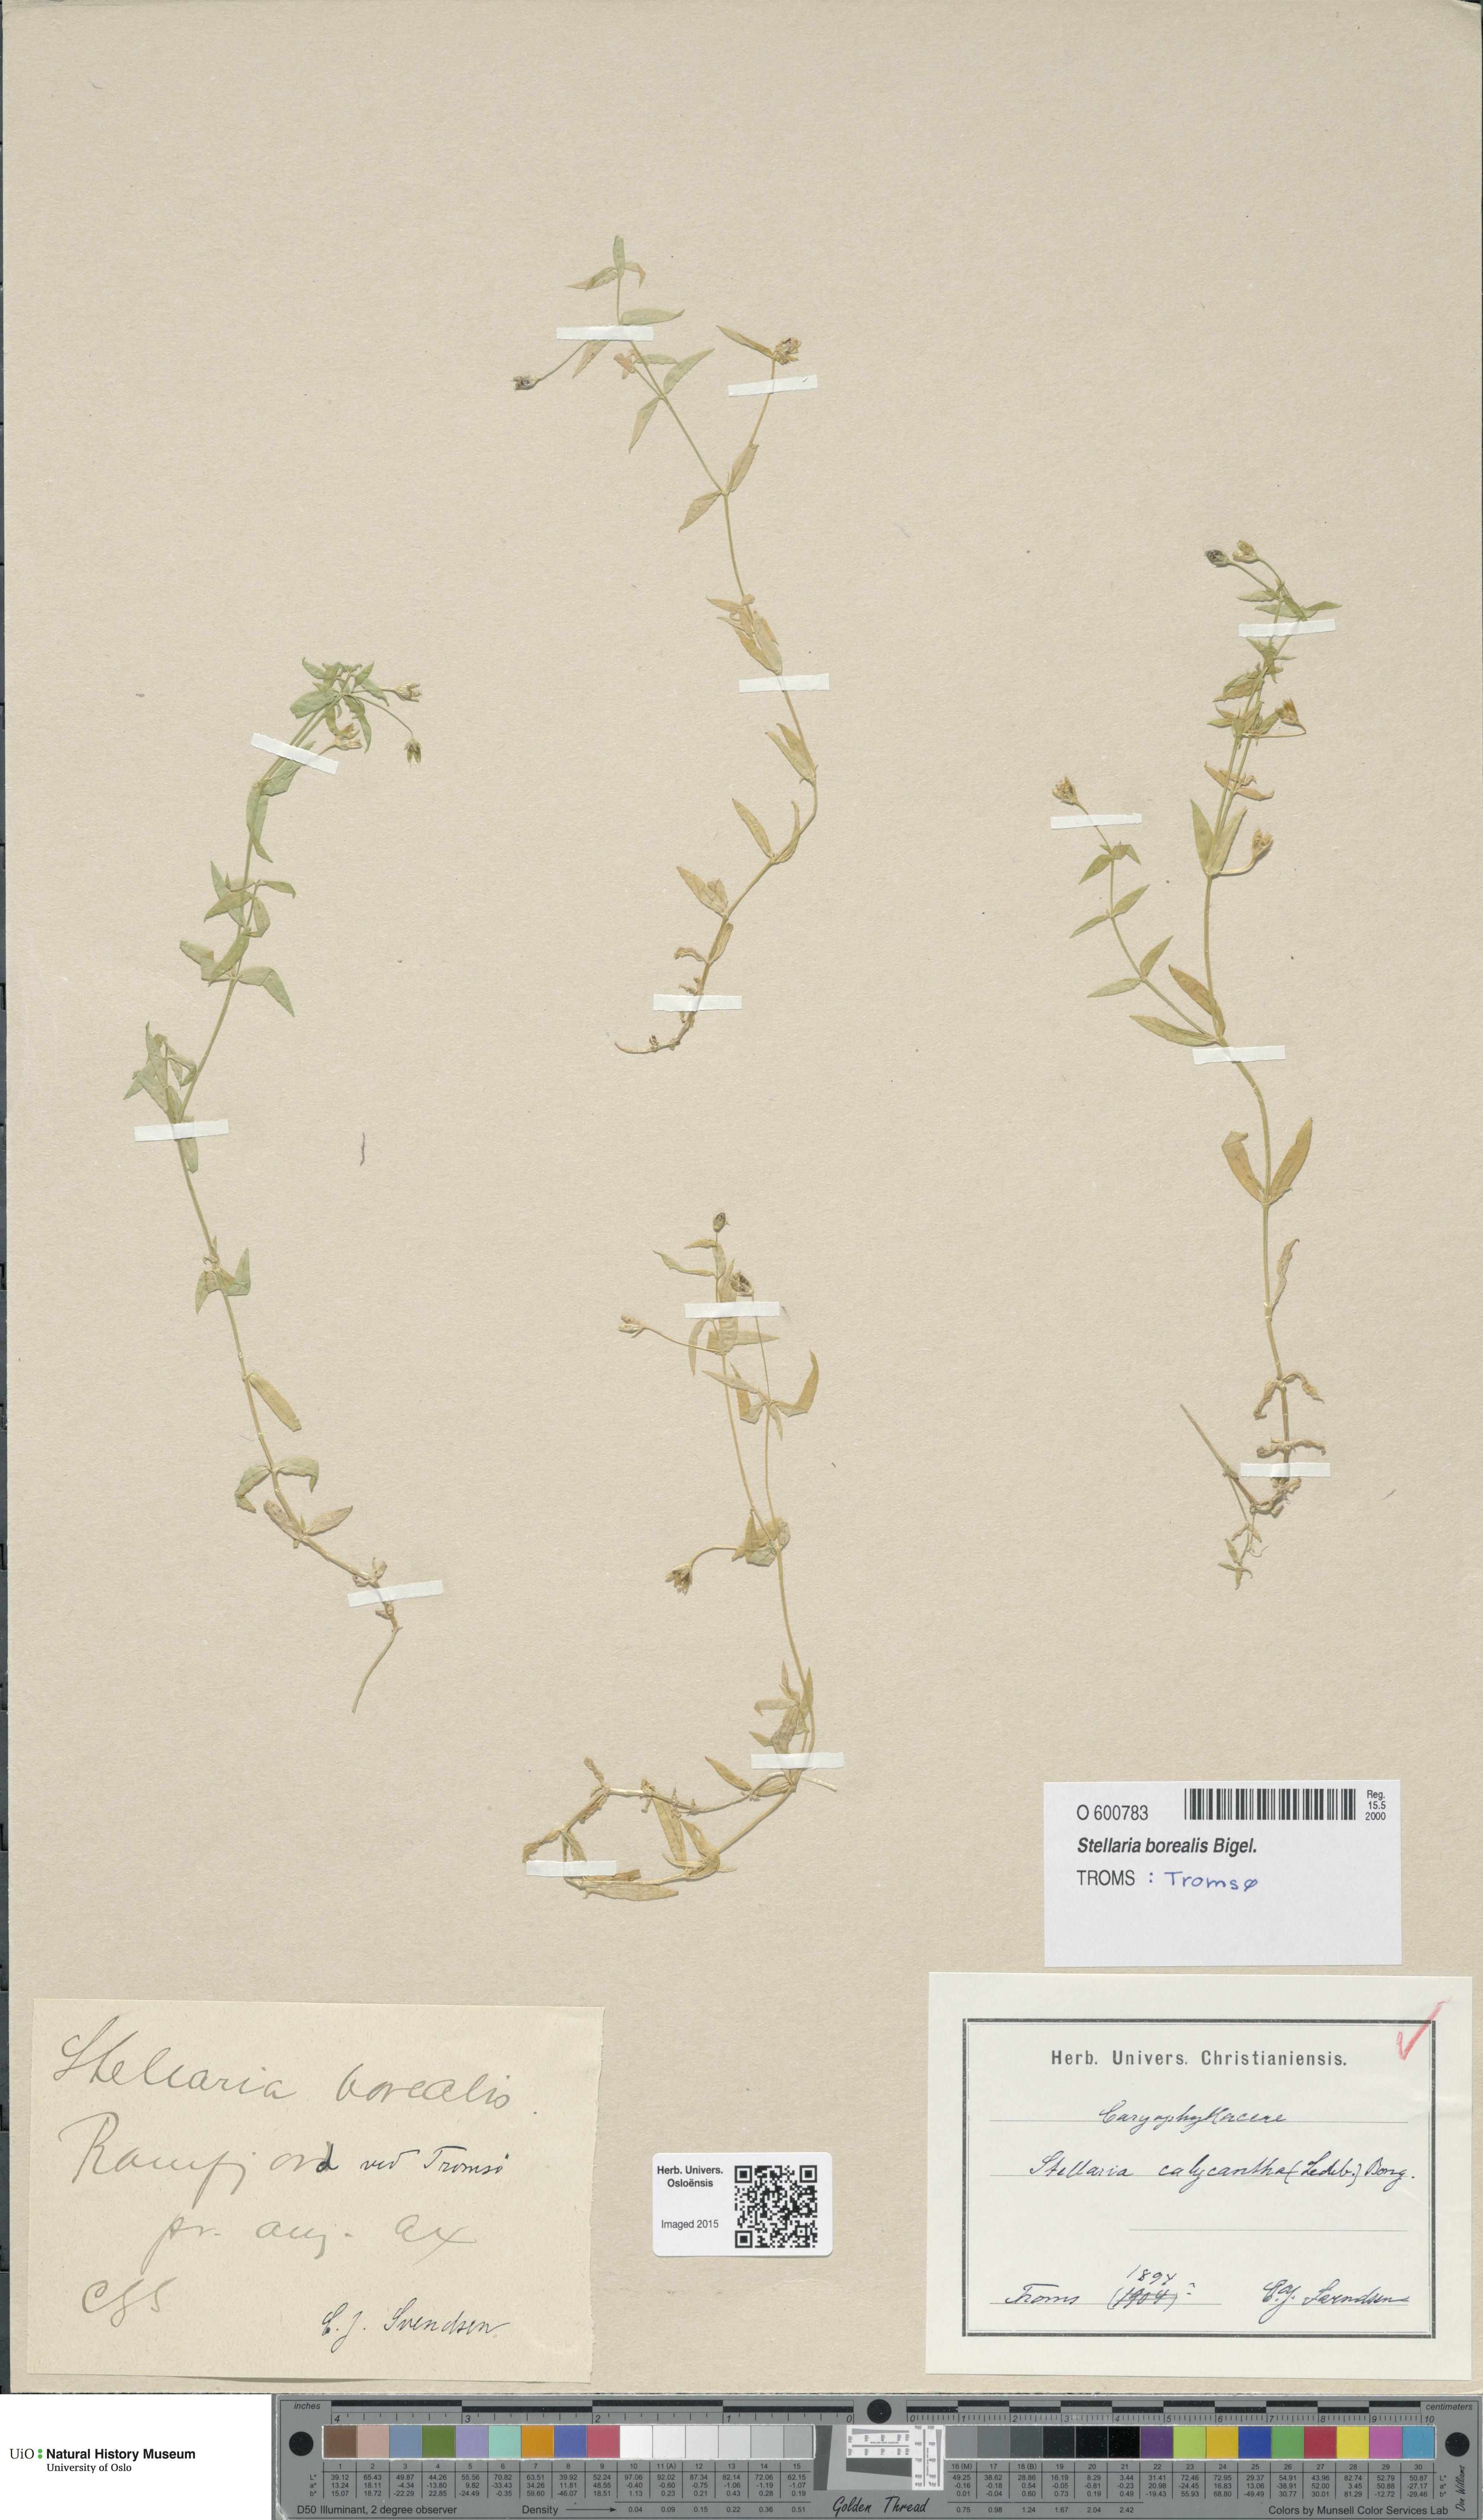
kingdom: Plantae
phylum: Tracheophyta
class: Magnoliopsida
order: Caryophyllales
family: Caryophyllaceae
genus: Stellaria
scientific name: Stellaria borealis
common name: Boreal starwort
